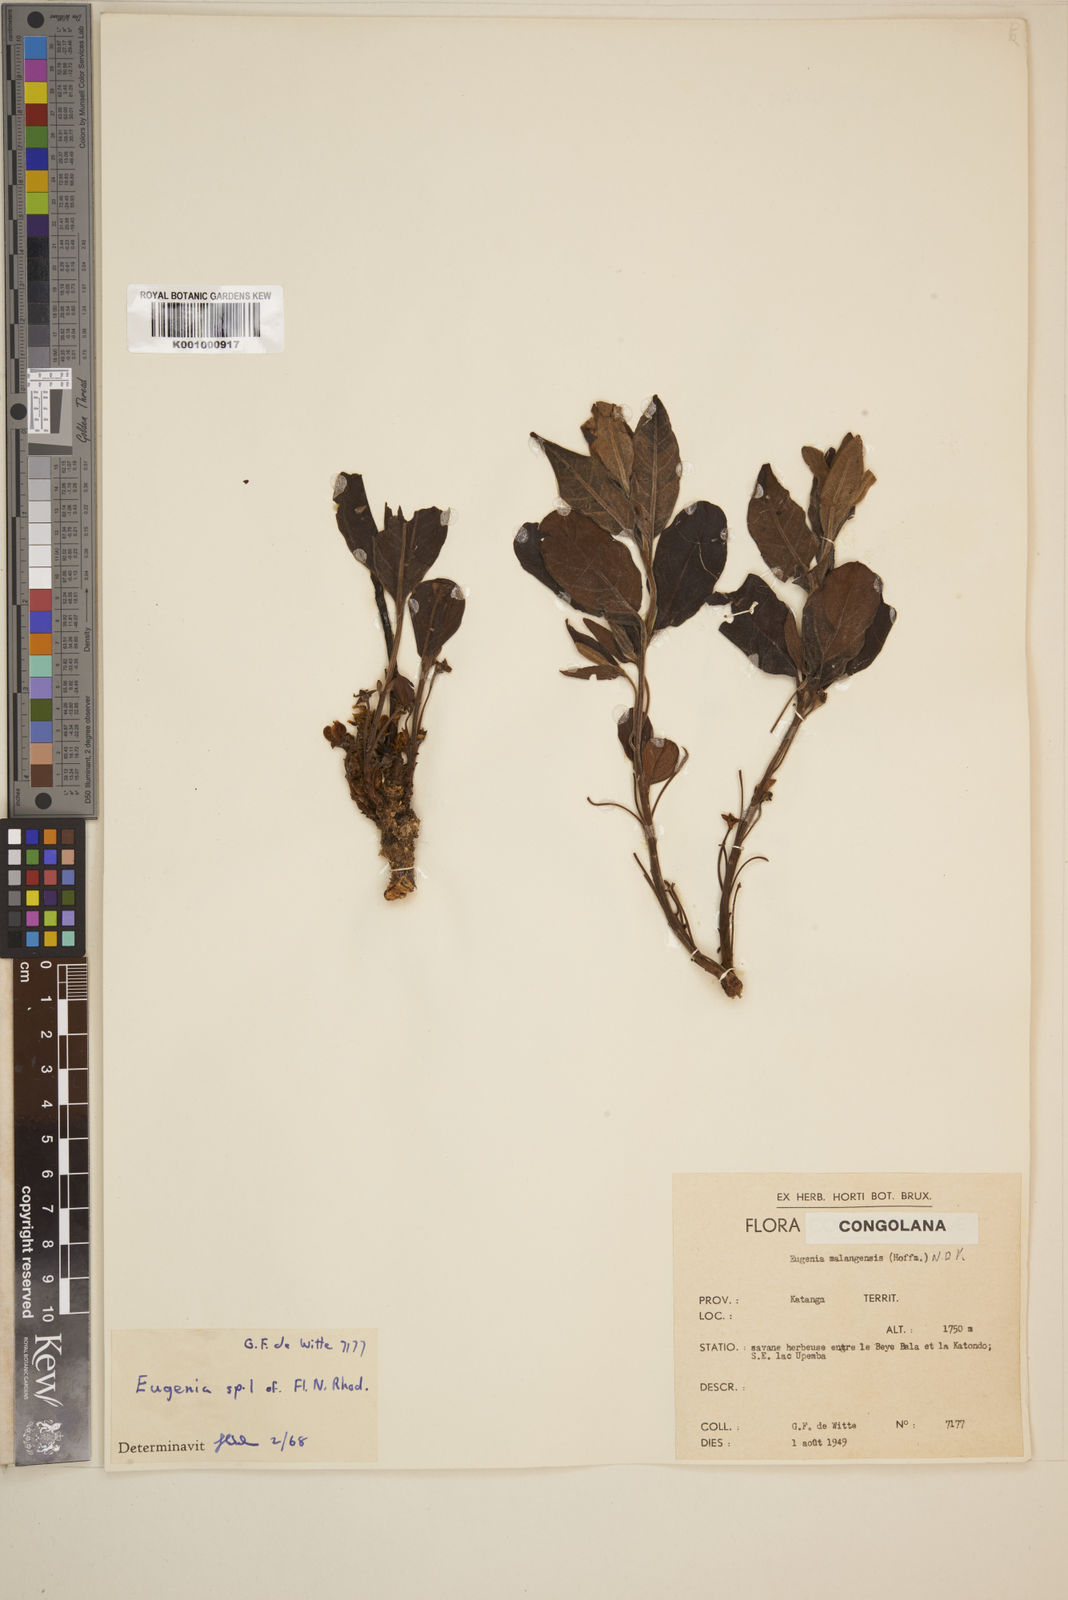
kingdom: Plantae
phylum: Tracheophyta
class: Magnoliopsida
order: Myrtales
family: Myrtaceae
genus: Eugenia
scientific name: Eugenia
